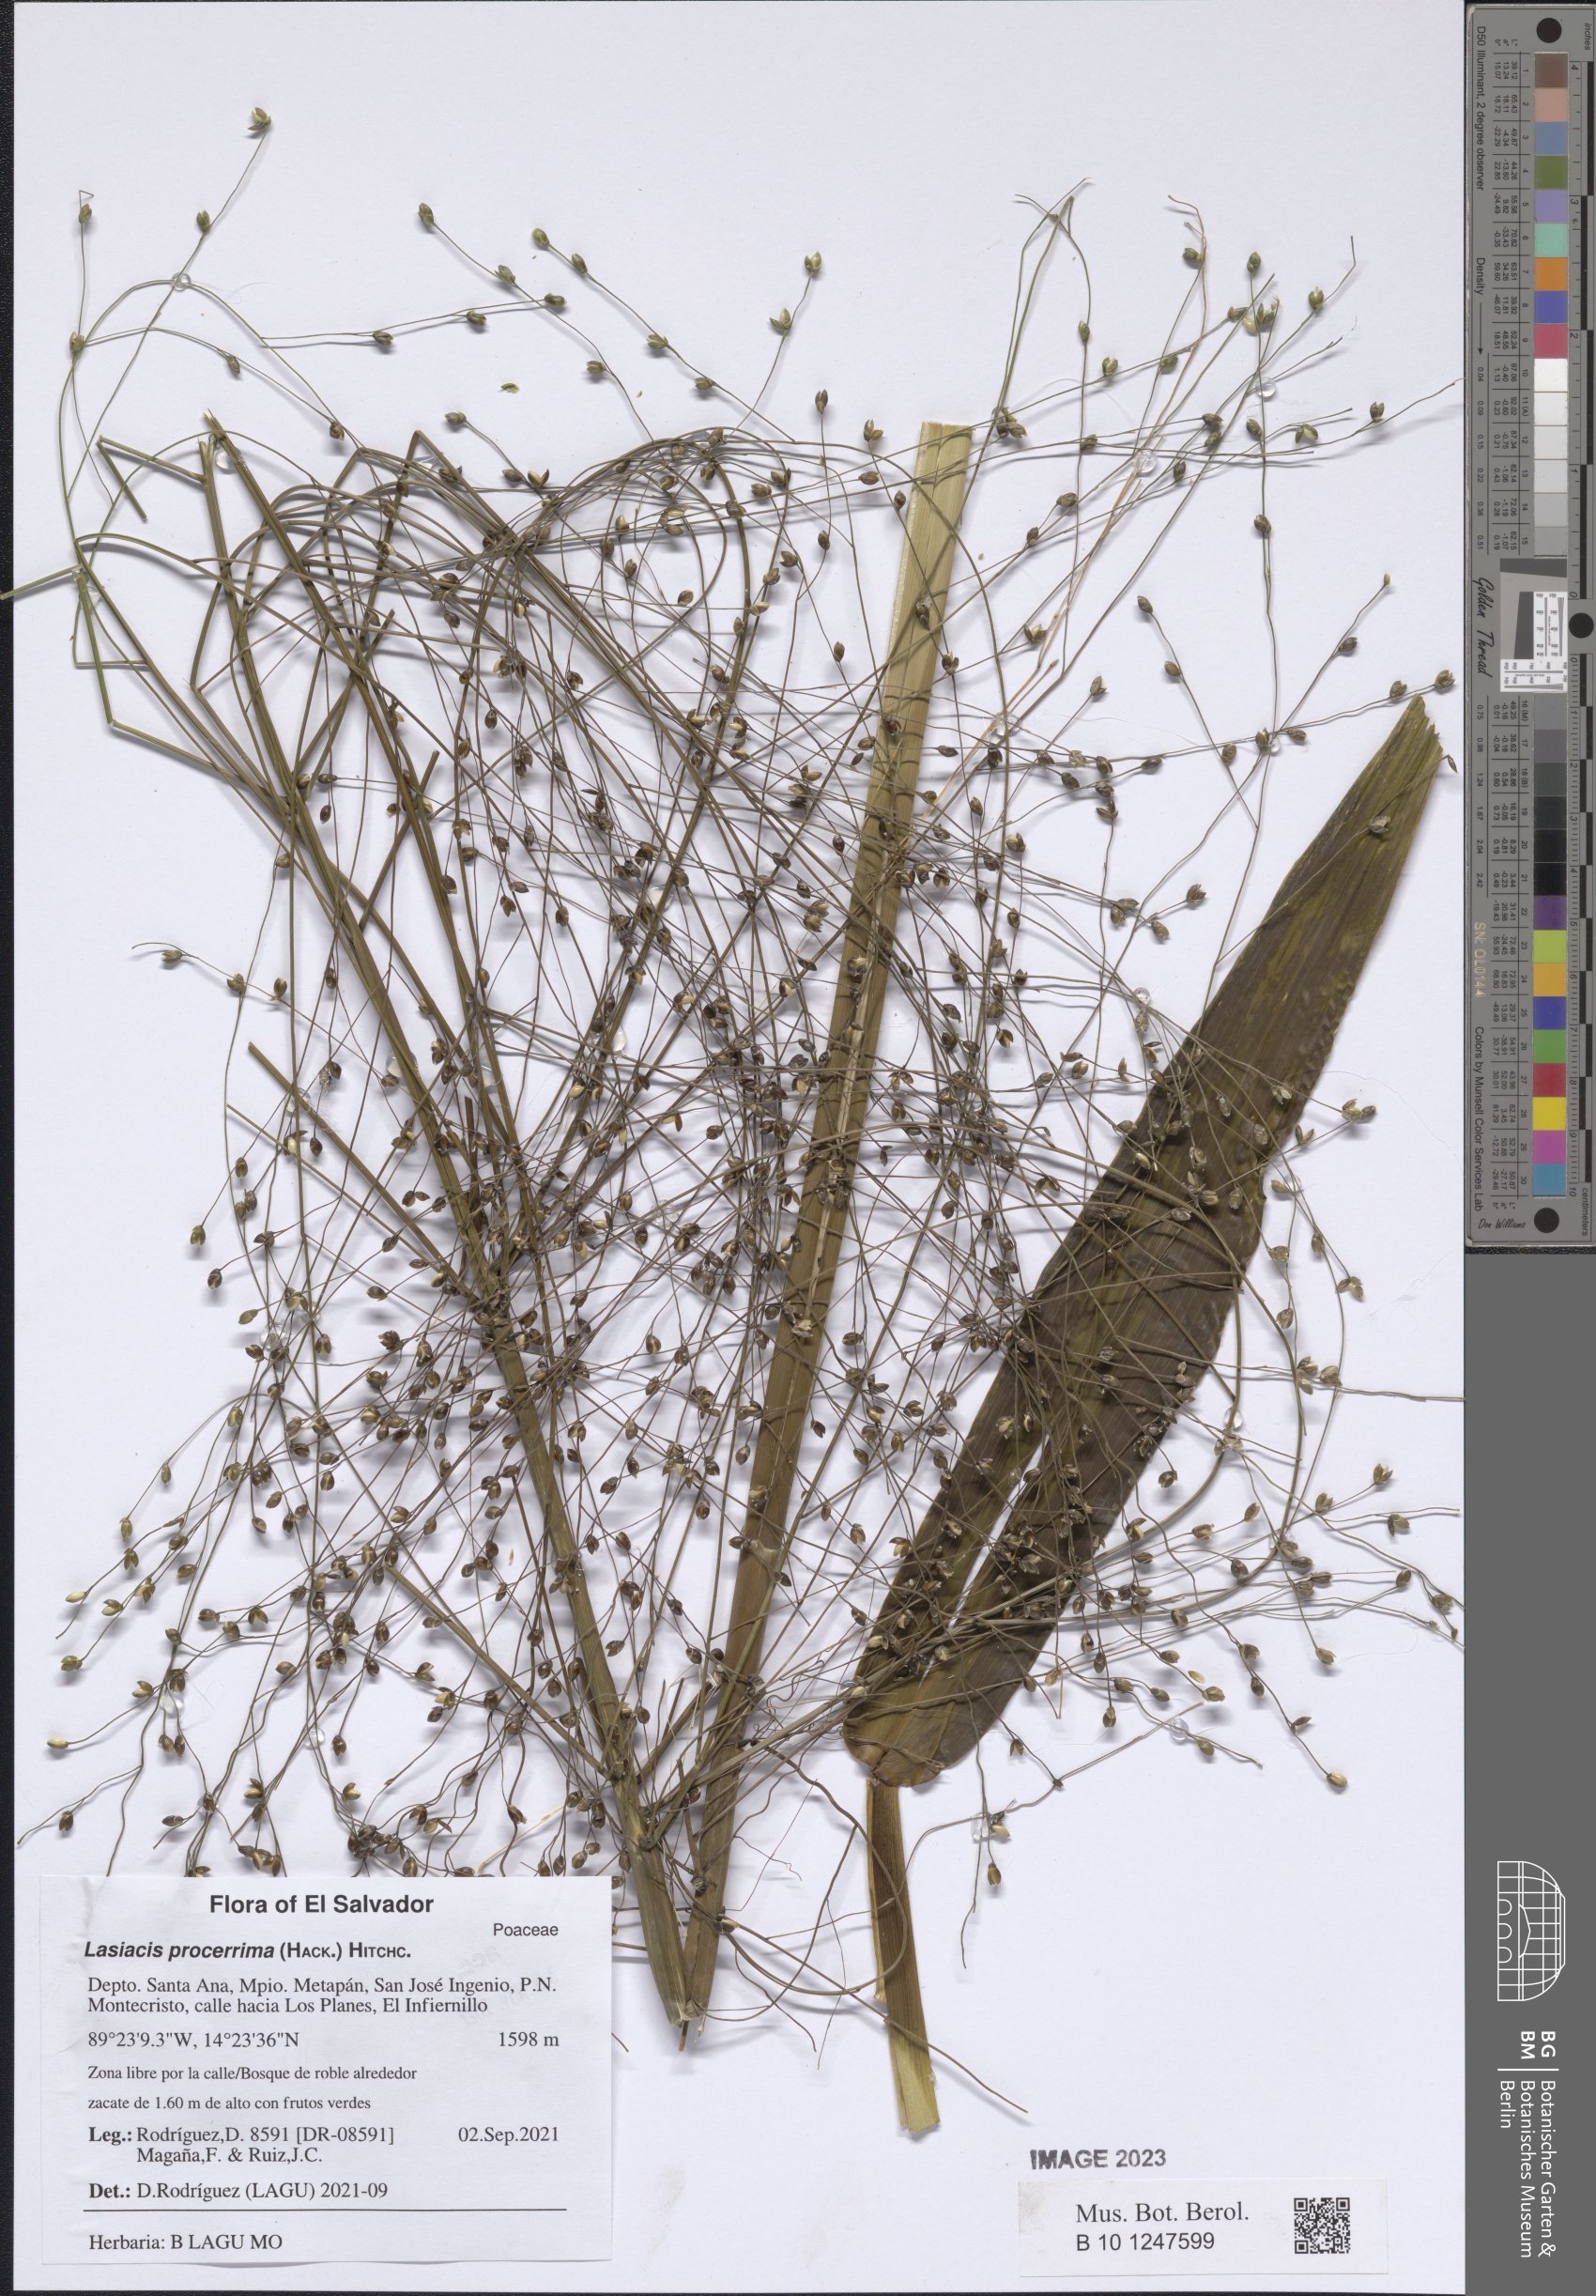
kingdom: Plantae
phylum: Tracheophyta
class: Liliopsida
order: Poales
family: Poaceae
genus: Lasiacis
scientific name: Lasiacis procerrima
